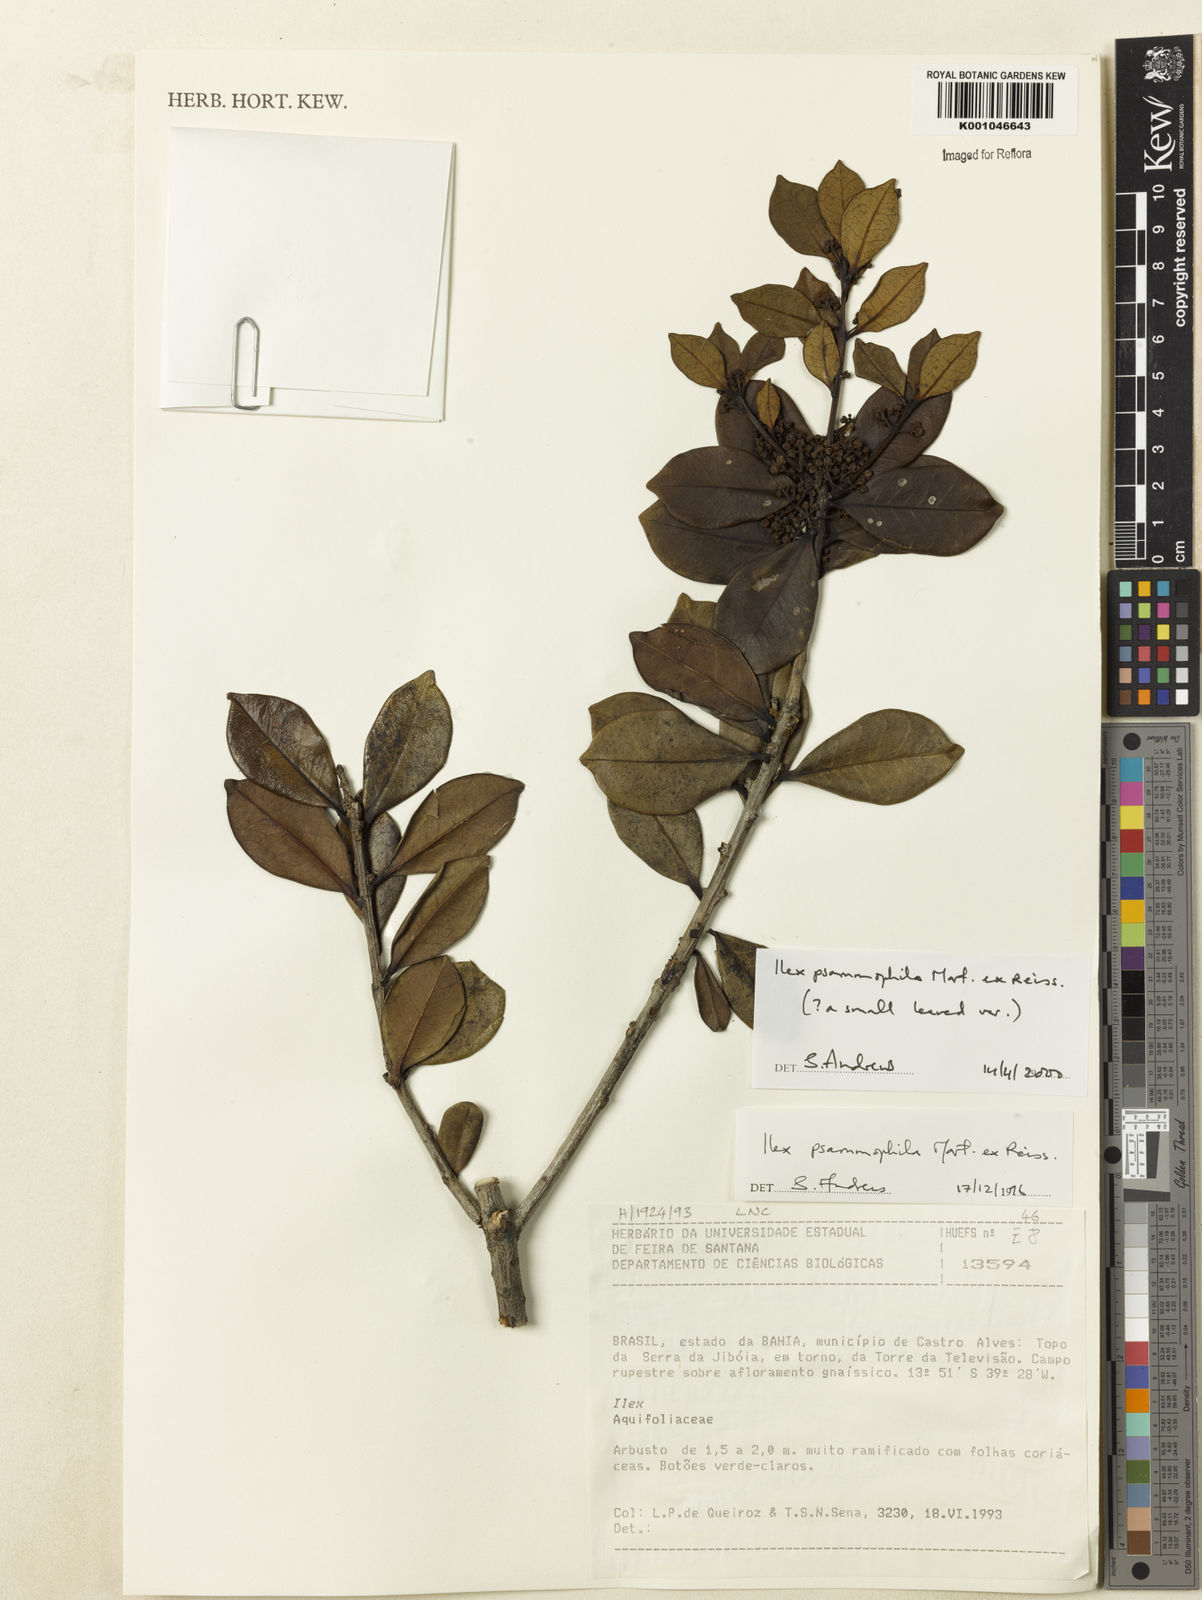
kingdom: Plantae
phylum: Tracheophyta
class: Magnoliopsida
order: Aquifoliales
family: Aquifoliaceae
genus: Ilex
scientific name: Ilex psammophila
